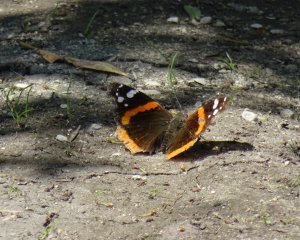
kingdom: Animalia
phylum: Arthropoda
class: Insecta
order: Lepidoptera
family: Nymphalidae
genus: Vanessa
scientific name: Vanessa atalanta
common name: Red Admiral
